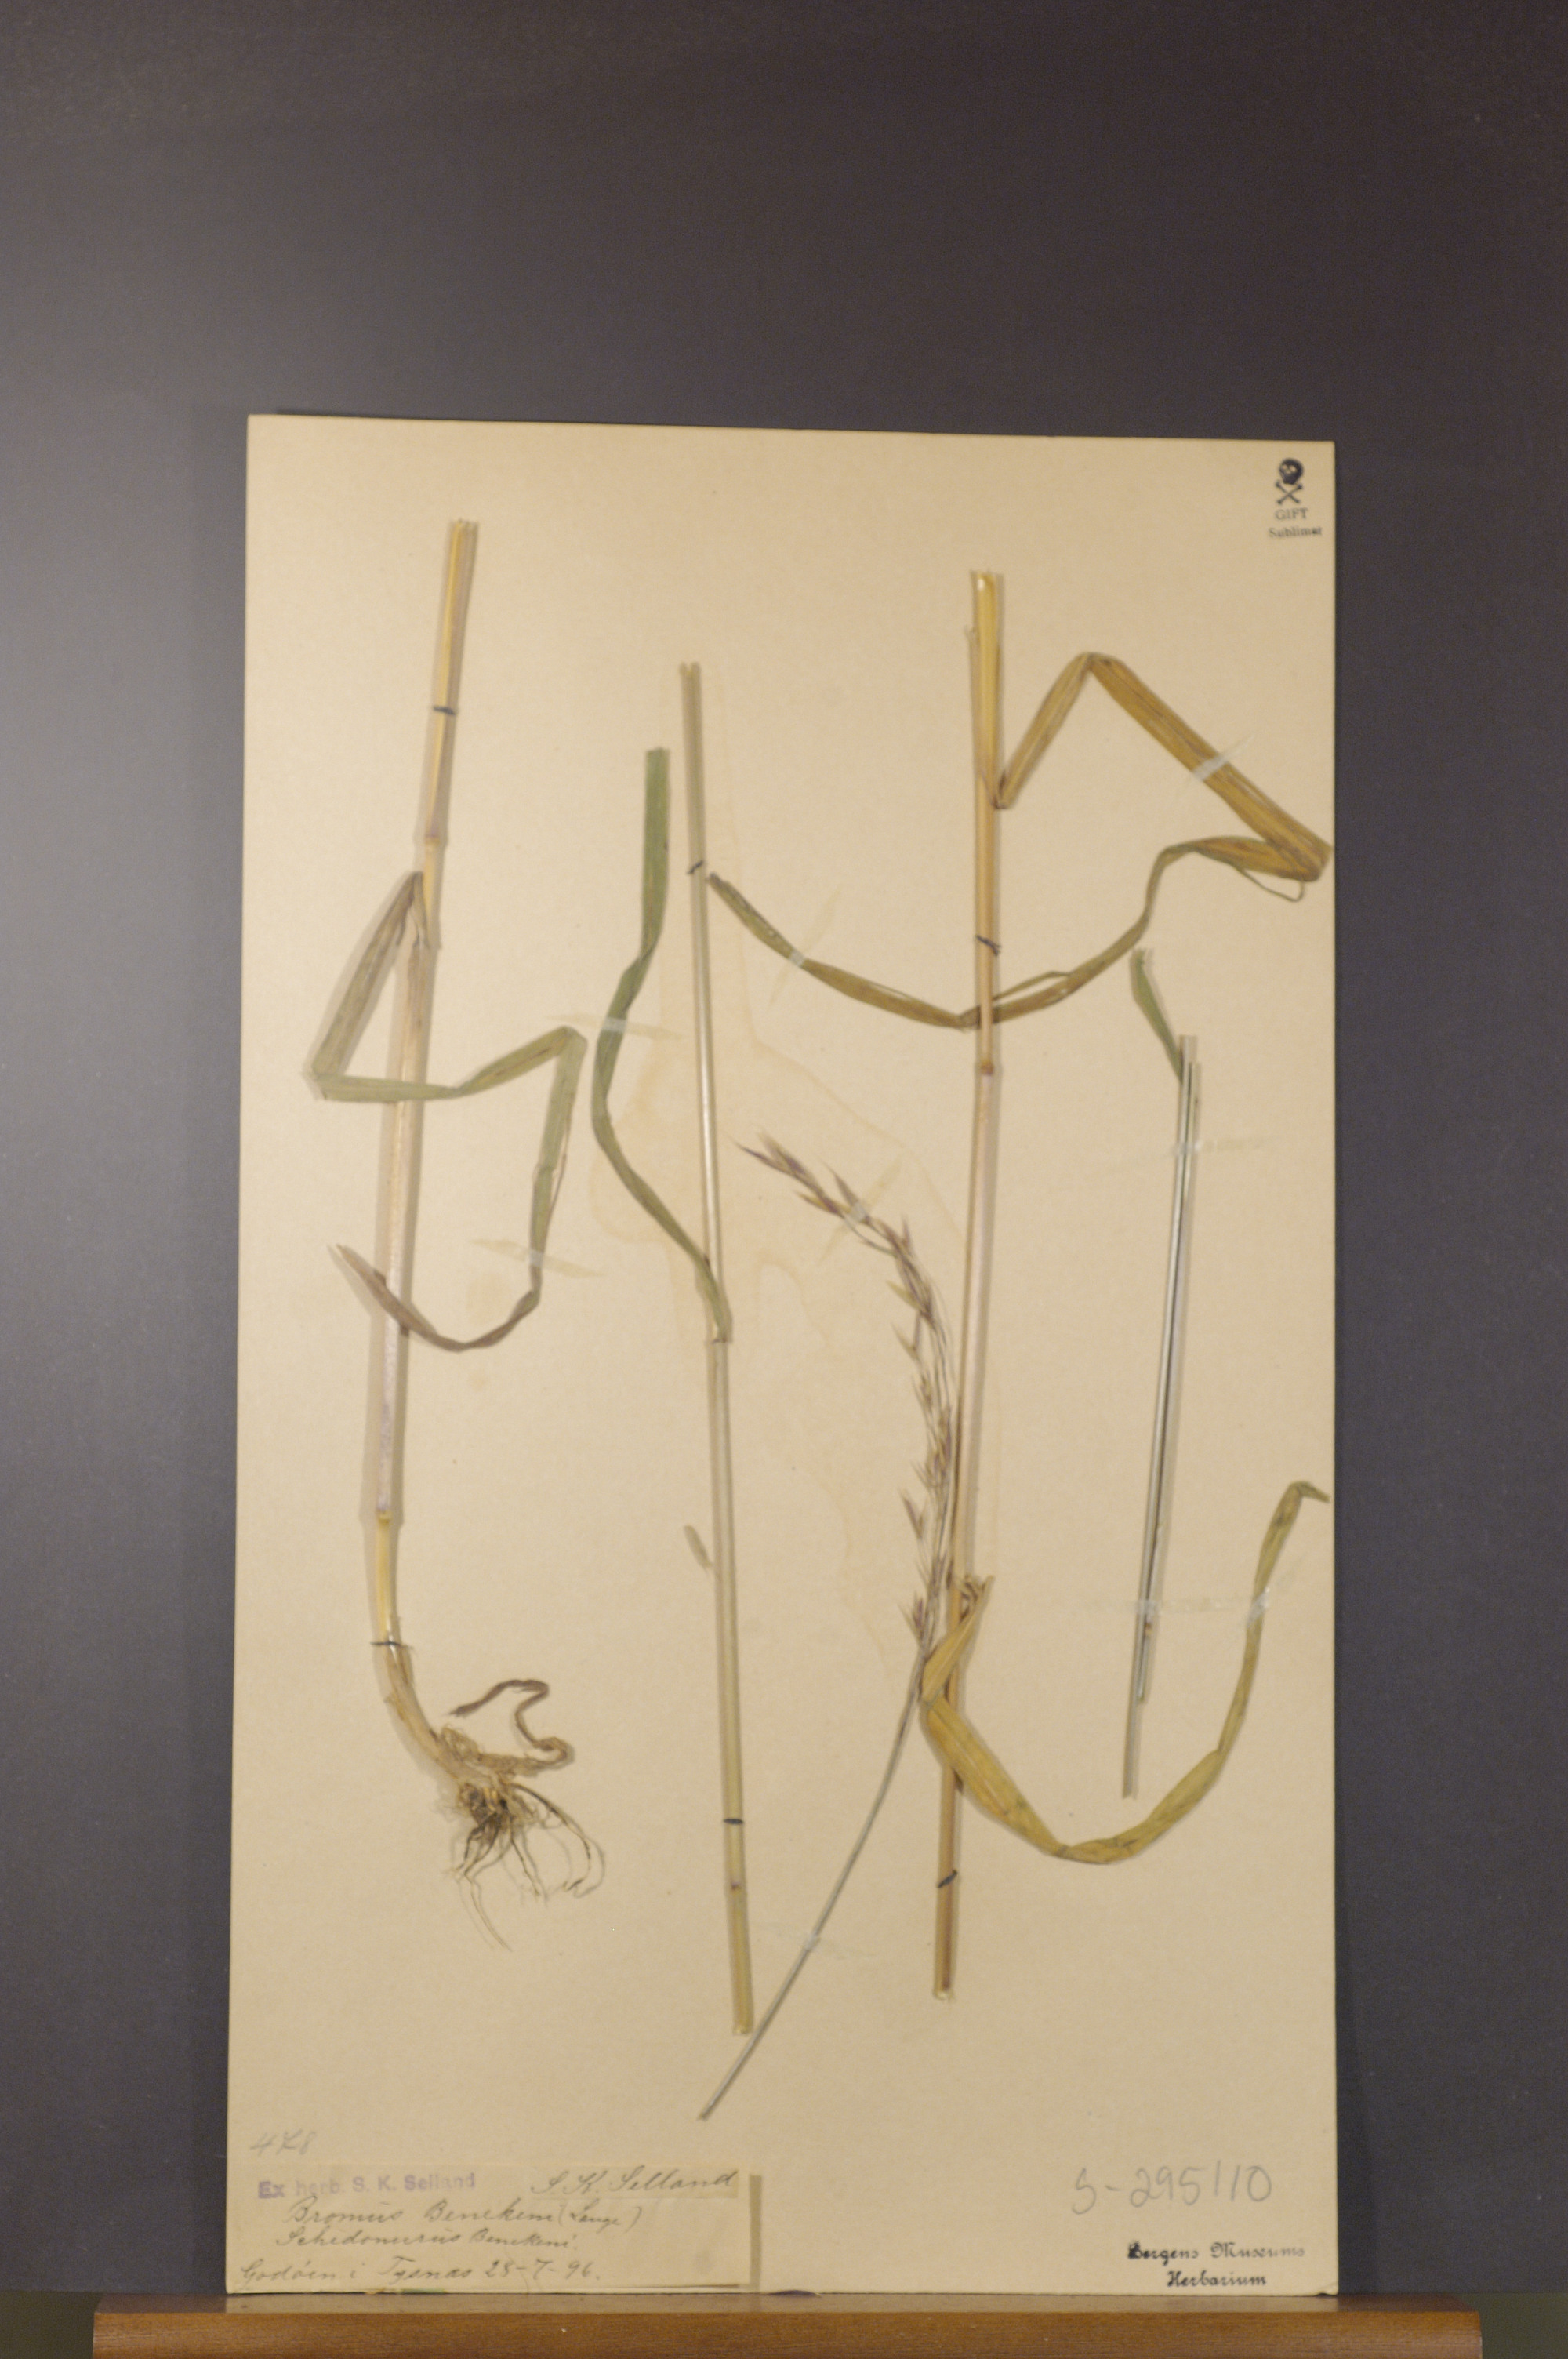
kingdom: Plantae
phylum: Tracheophyta
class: Liliopsida
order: Poales
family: Poaceae
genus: Bromus
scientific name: Bromus benekenii
